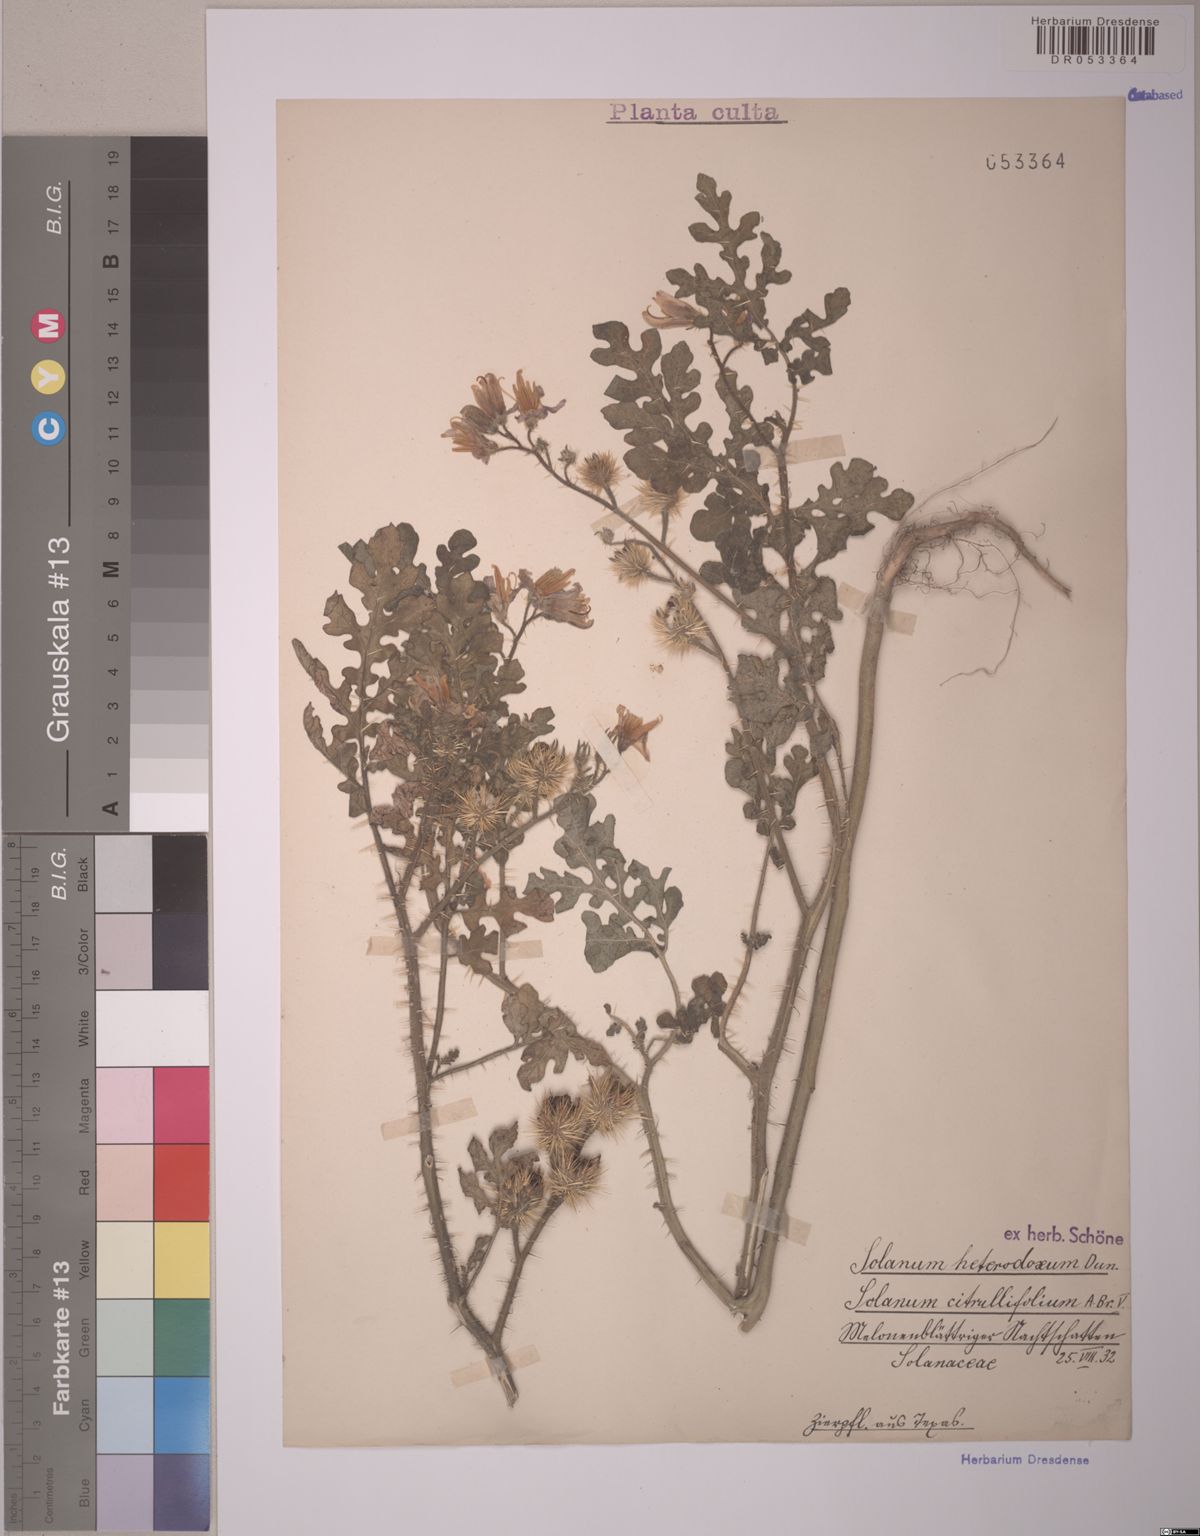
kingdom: Plantae
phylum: Tracheophyta
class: Magnoliopsida
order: Solanales
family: Solanaceae
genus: Solanum
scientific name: Solanum heterodoxum
